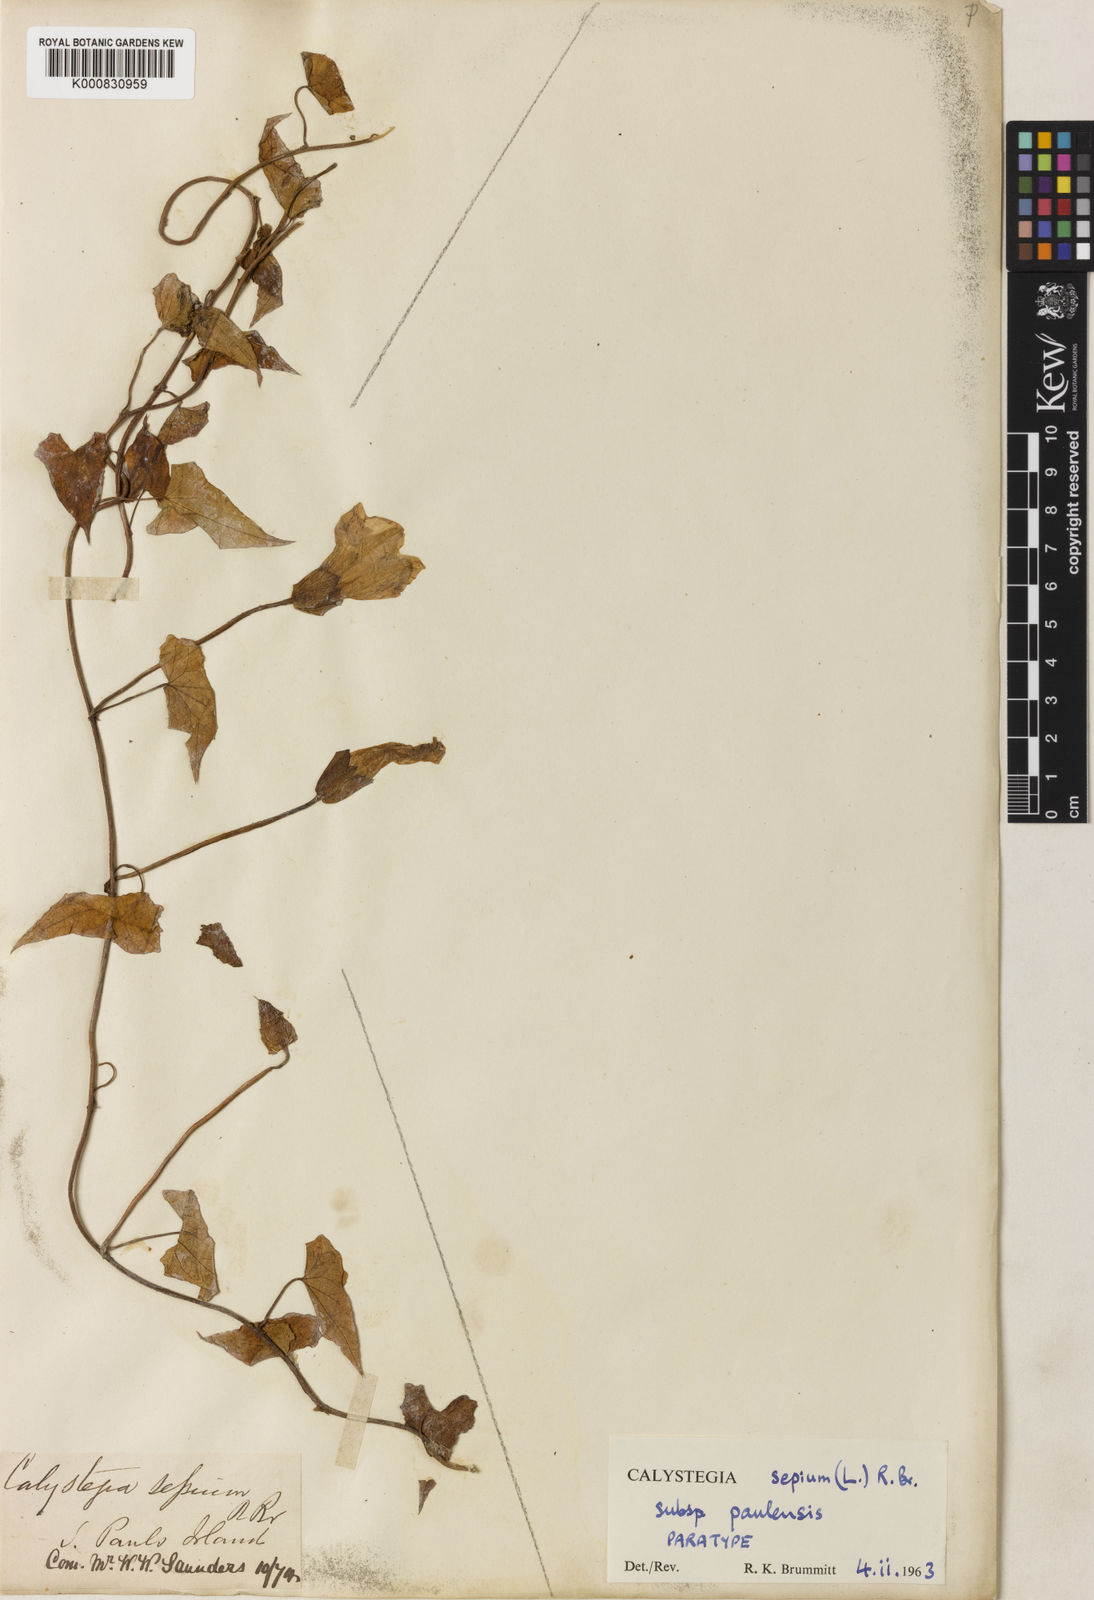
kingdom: Plantae
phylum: Tracheophyta
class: Magnoliopsida
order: Solanales
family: Convolvulaceae
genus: Calystegia
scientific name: Calystegia sepium
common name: Hedge bindweed
